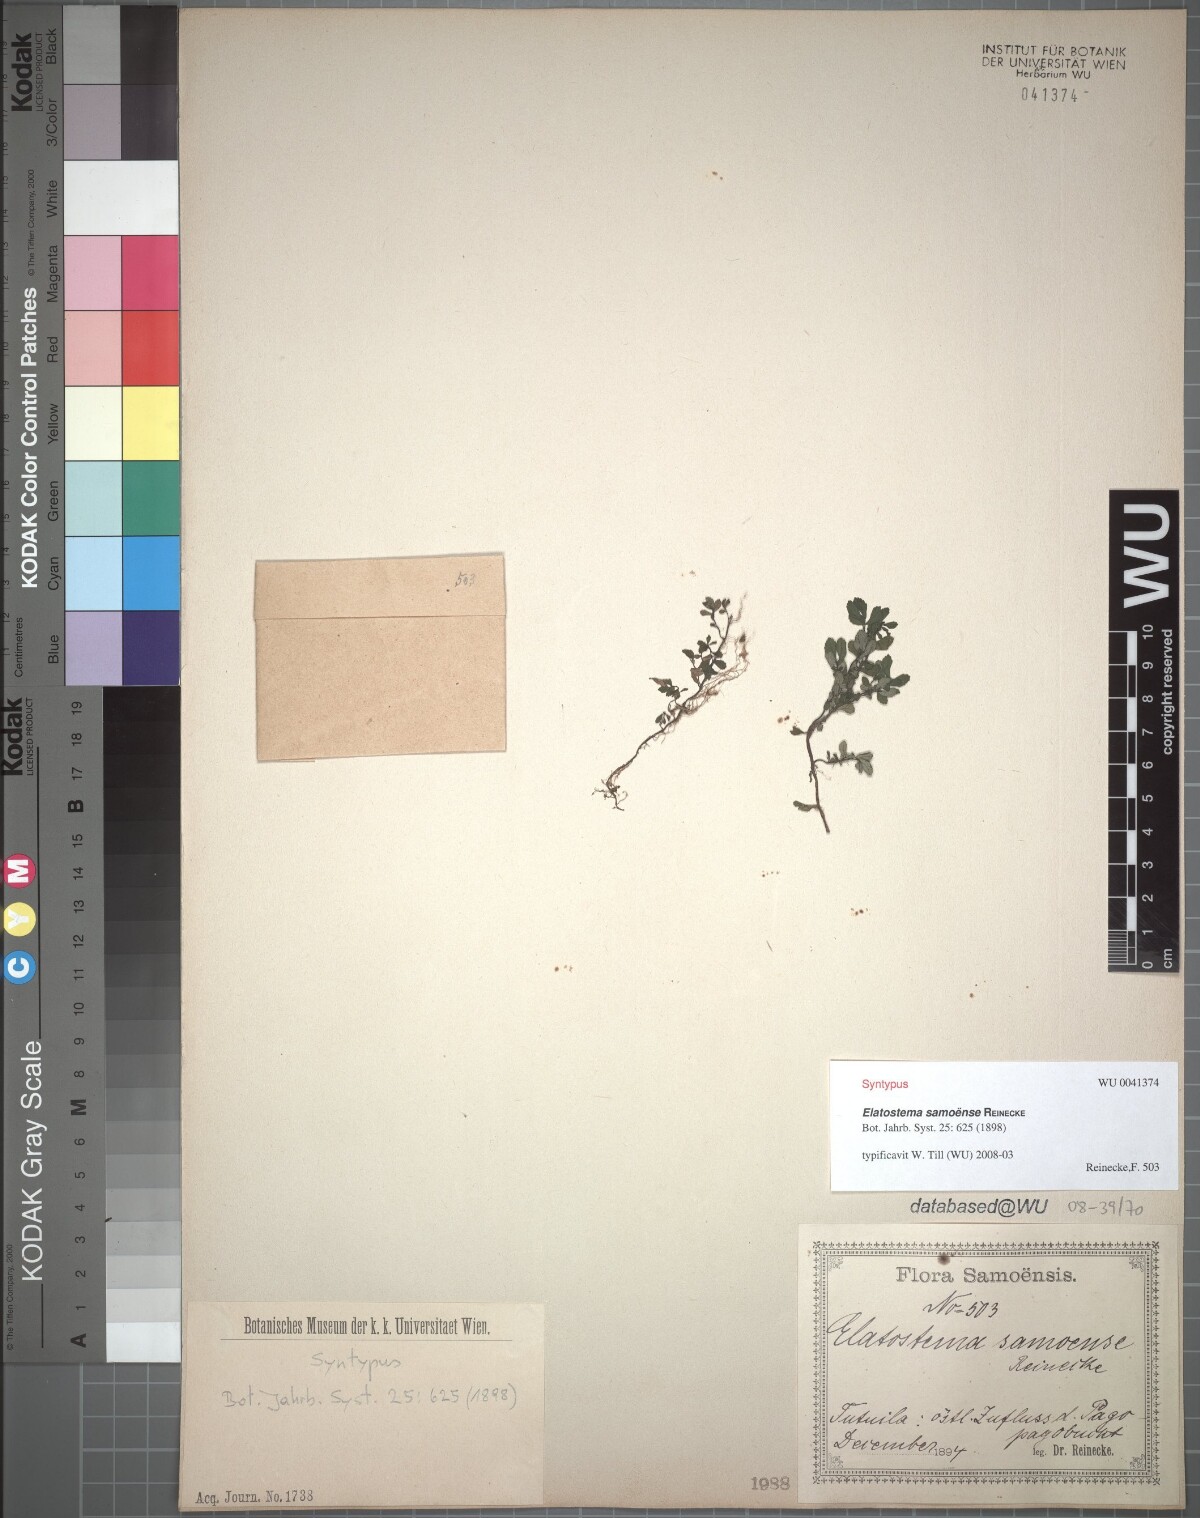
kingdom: Plantae
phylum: Tracheophyta
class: Magnoliopsida
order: Rosales
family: Urticaceae
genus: Elatostema
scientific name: Elatostema samoense
